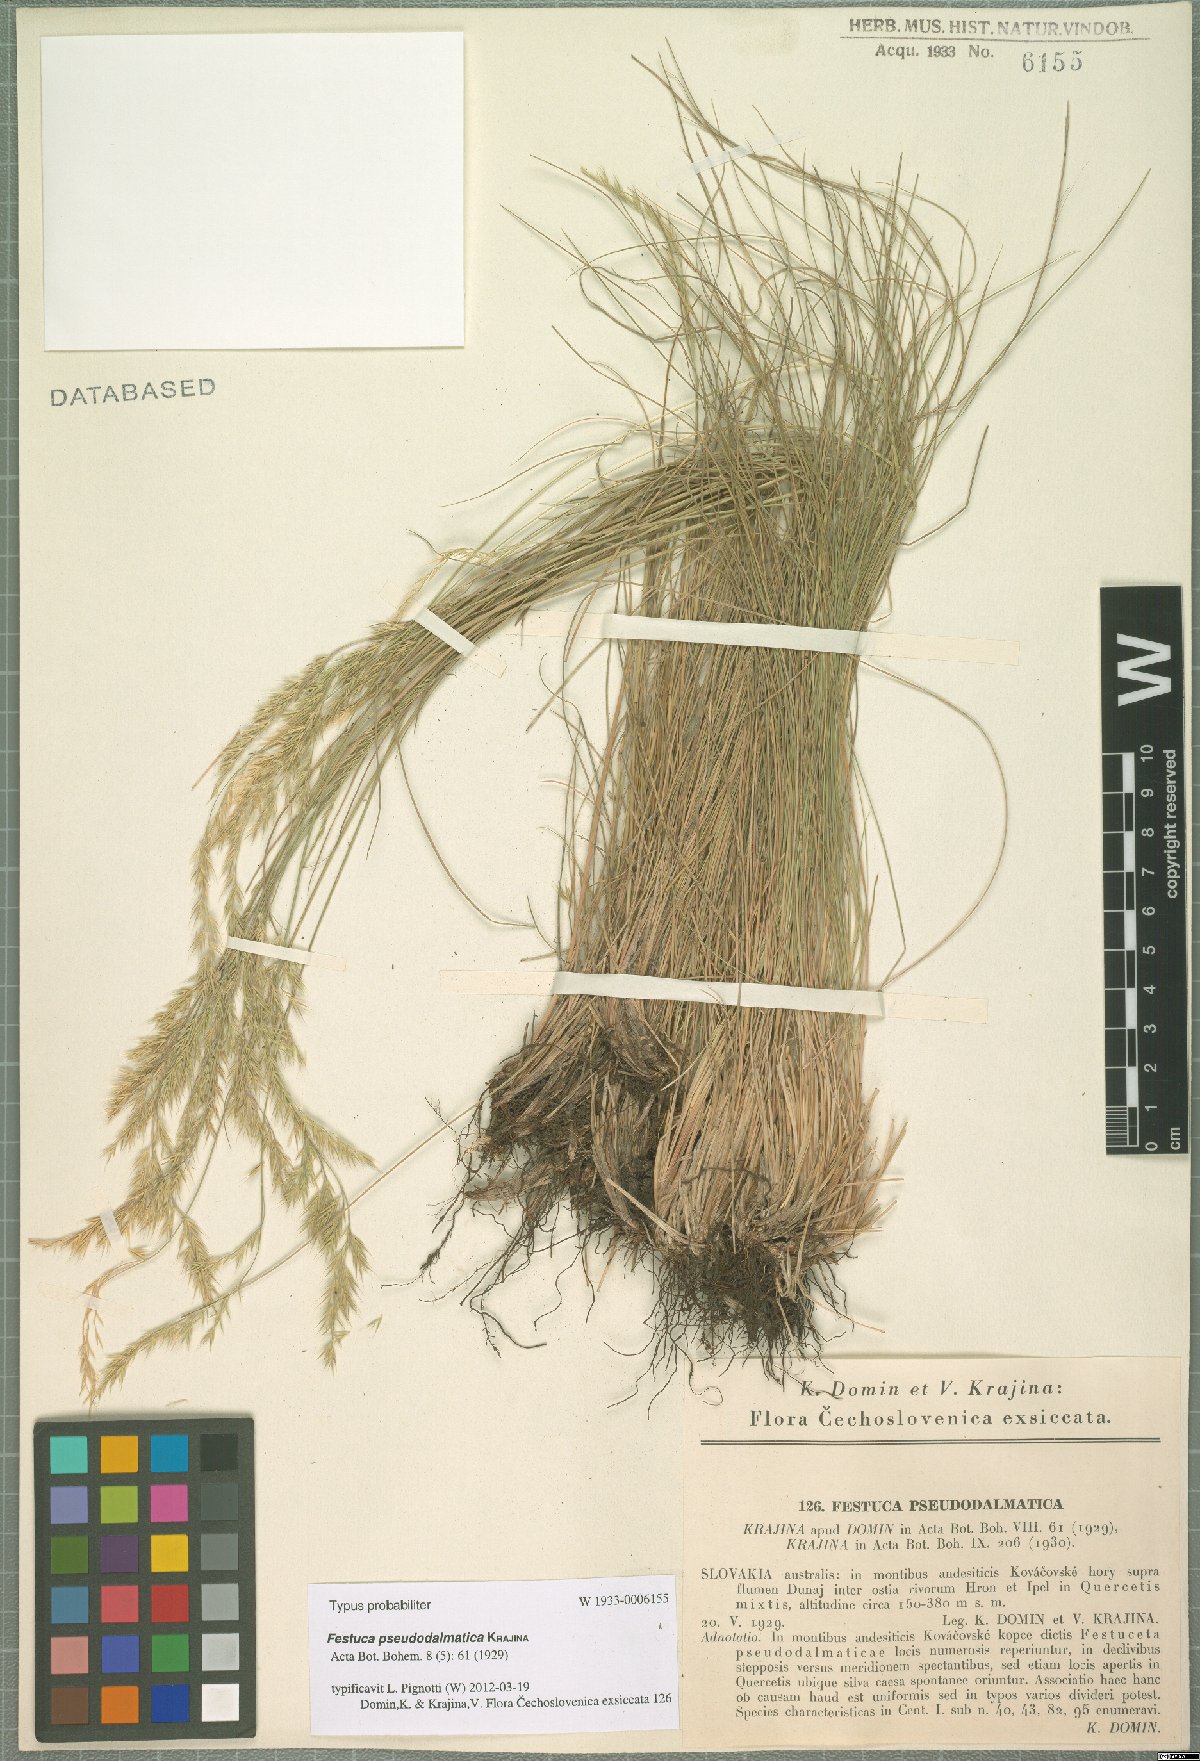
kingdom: Plantae
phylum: Tracheophyta
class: Liliopsida
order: Poales
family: Poaceae
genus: Festuca
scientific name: Festuca pseudodalmatica
